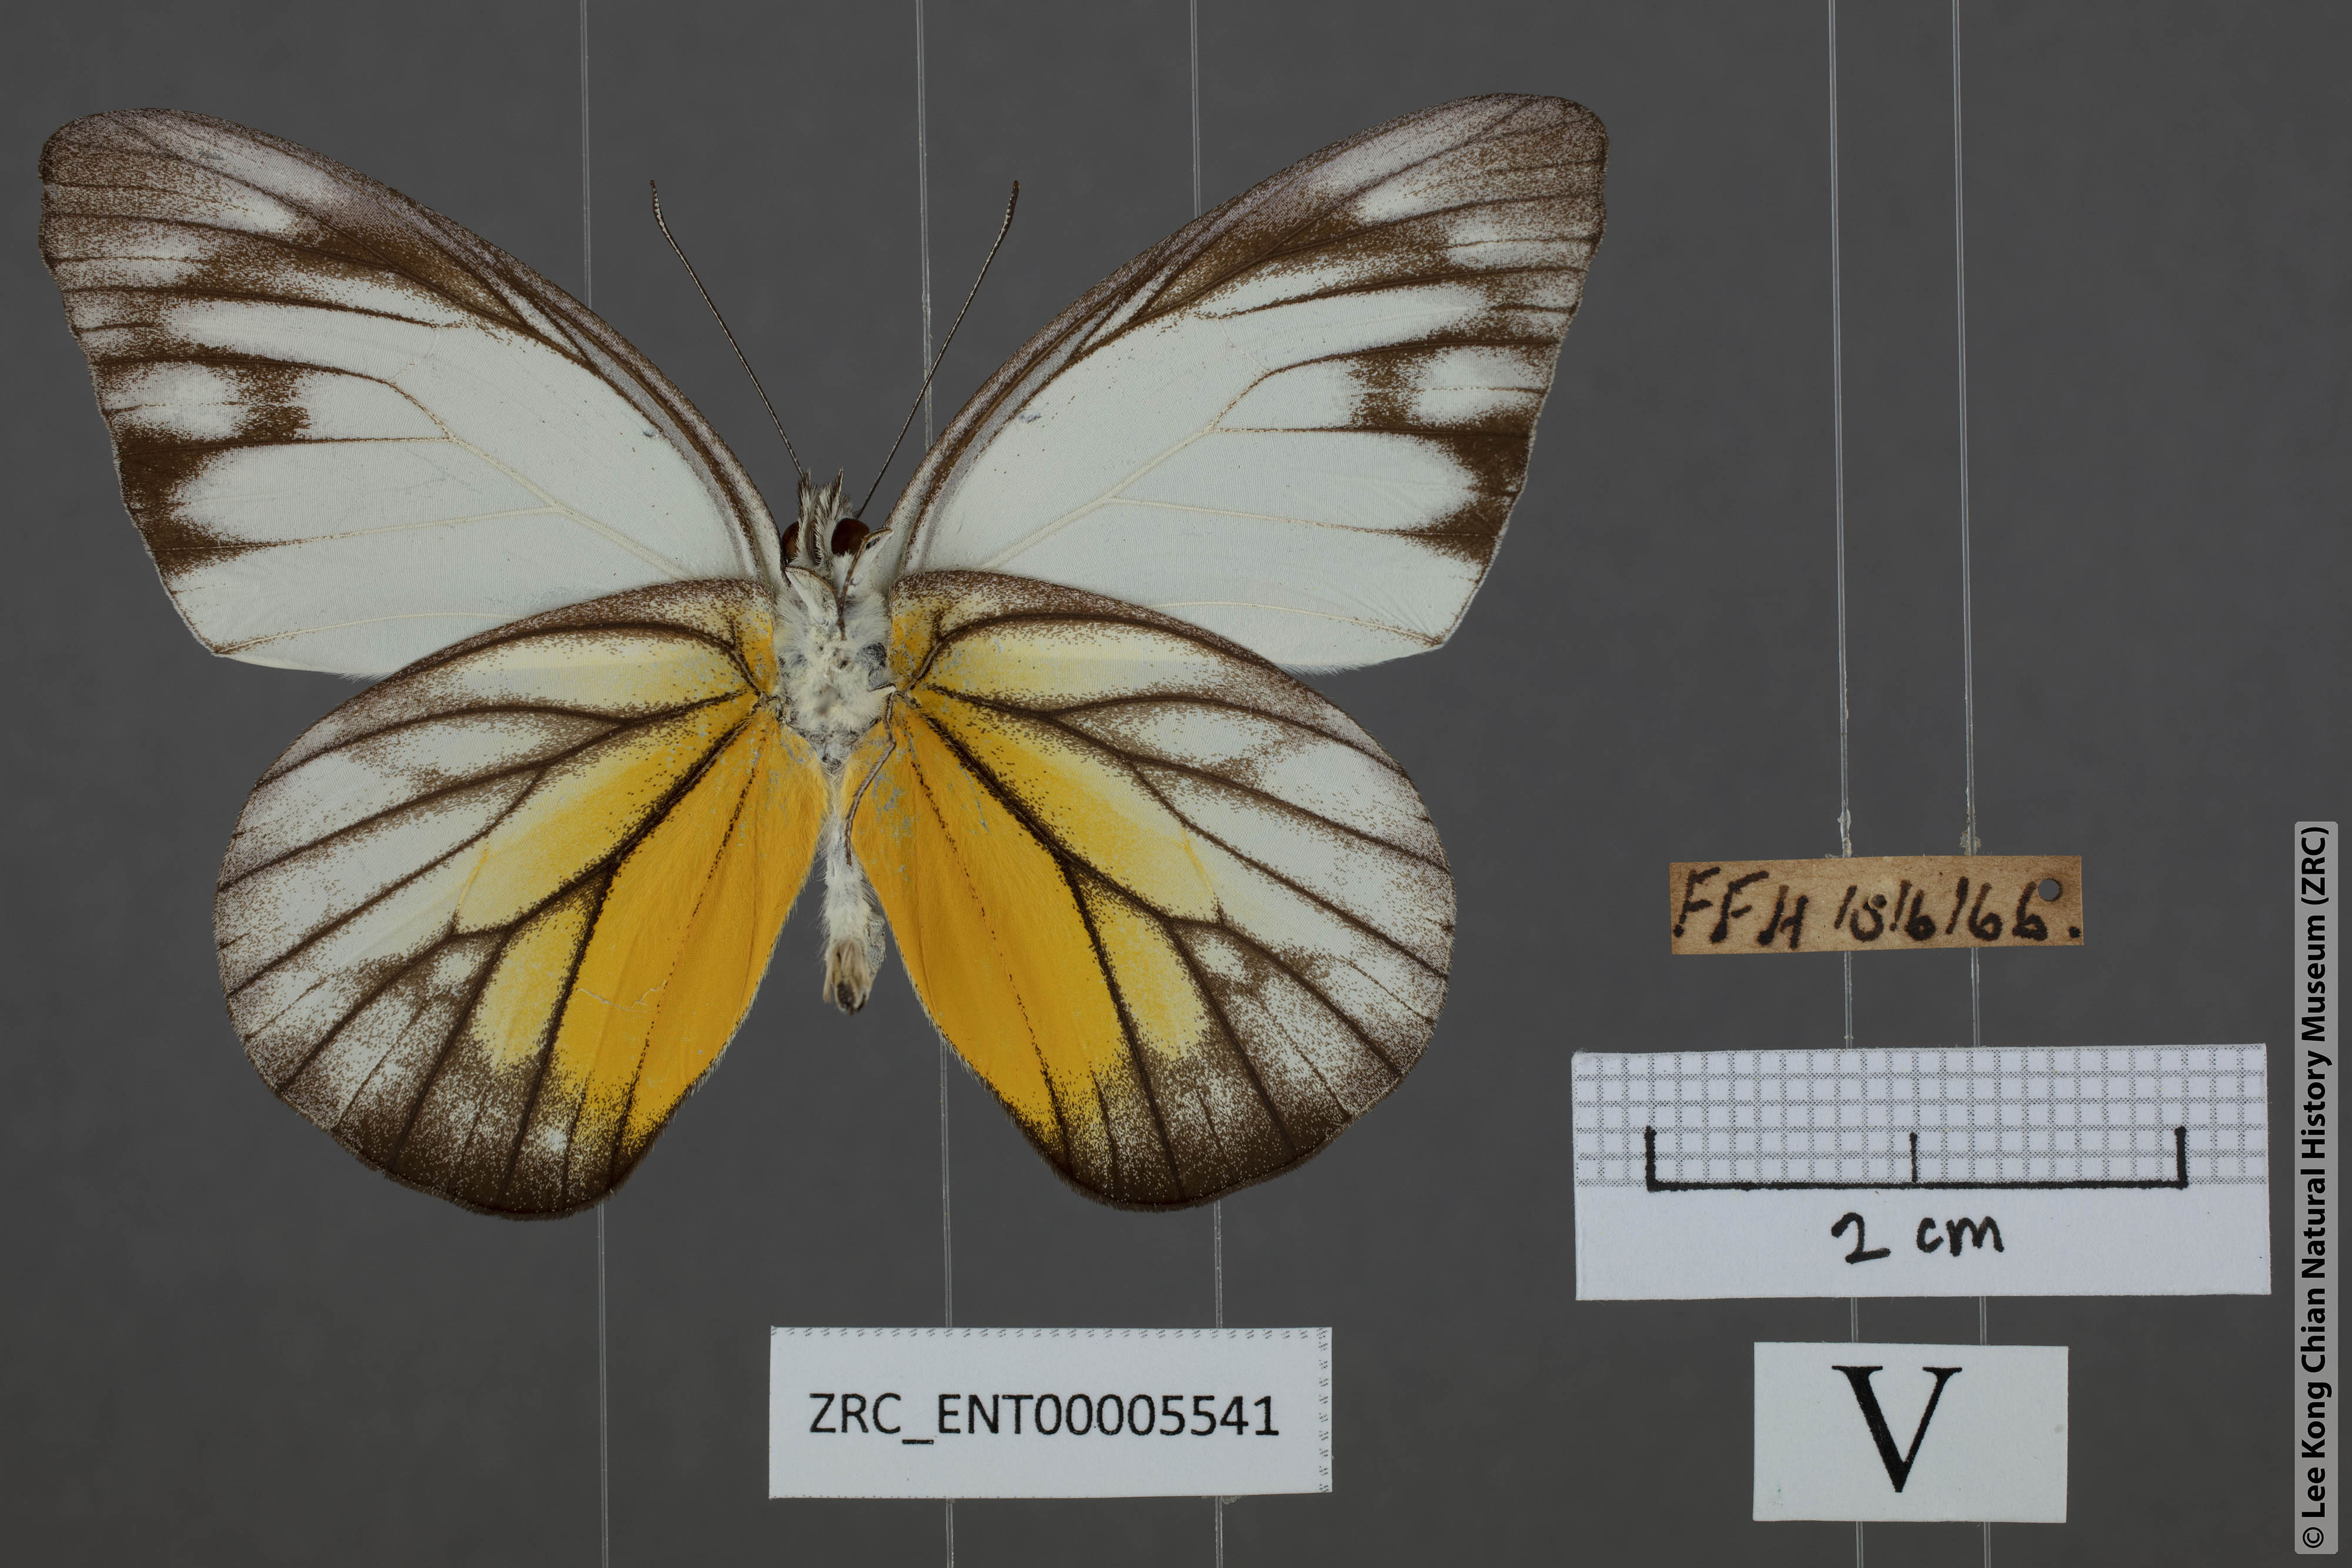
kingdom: Animalia
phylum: Arthropoda
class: Insecta
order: Lepidoptera
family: Pieridae
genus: Appias
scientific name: Appias cardena
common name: Yellow puffin
